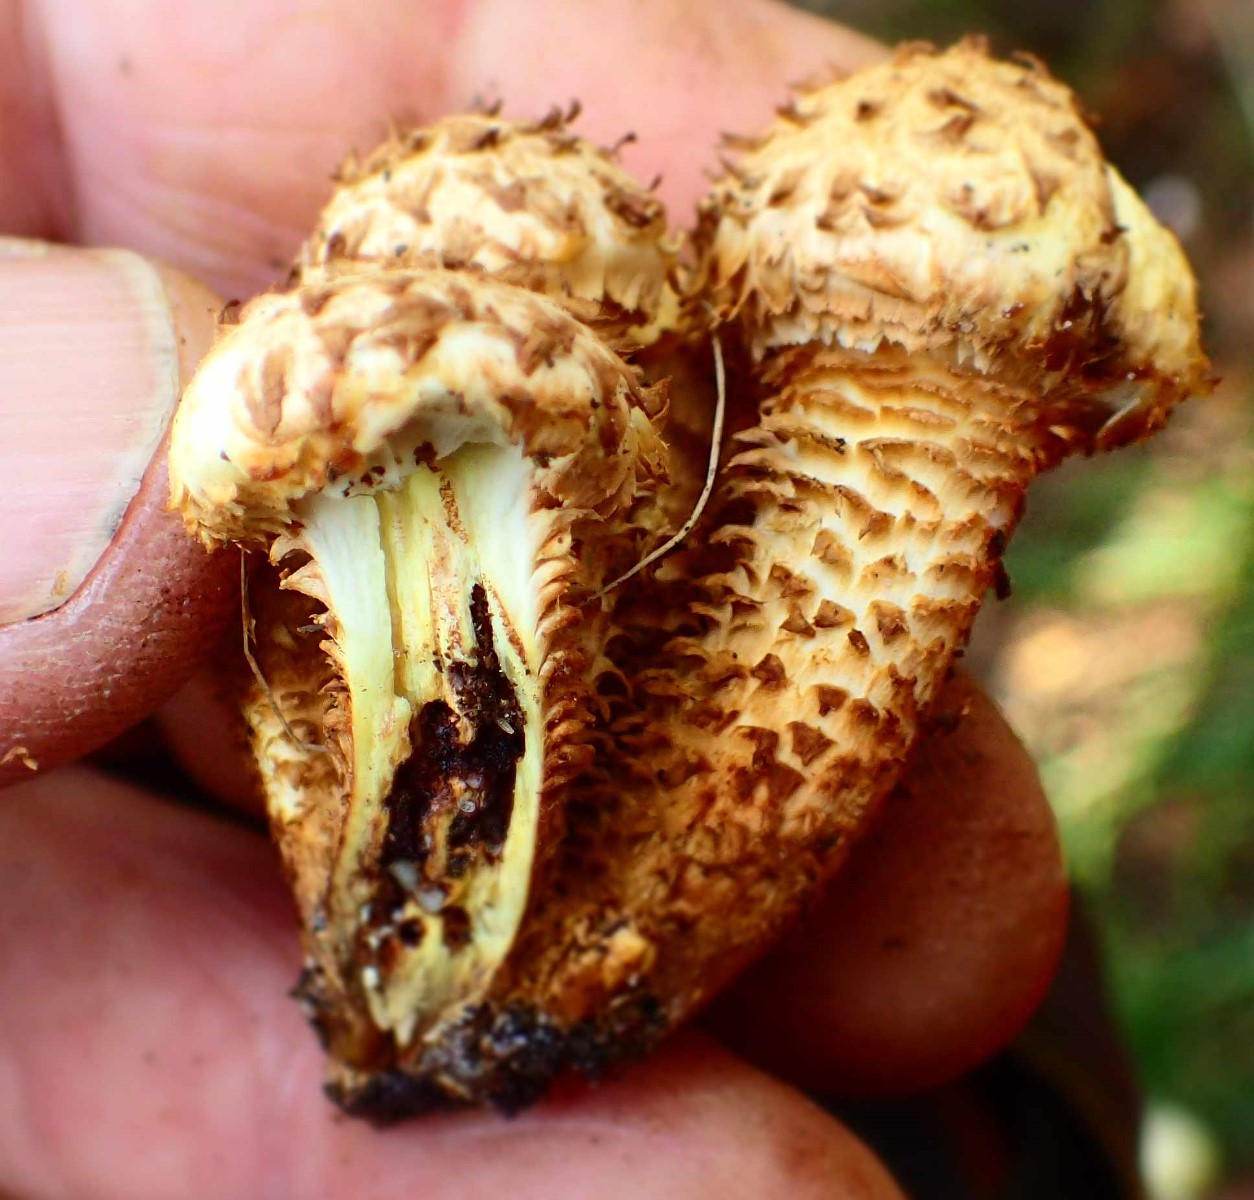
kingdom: Fungi
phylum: Basidiomycota
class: Agaricomycetes
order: Agaricales
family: Strophariaceae
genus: Pholiota
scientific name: Pholiota squarrosa
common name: krumskællet skælhat
